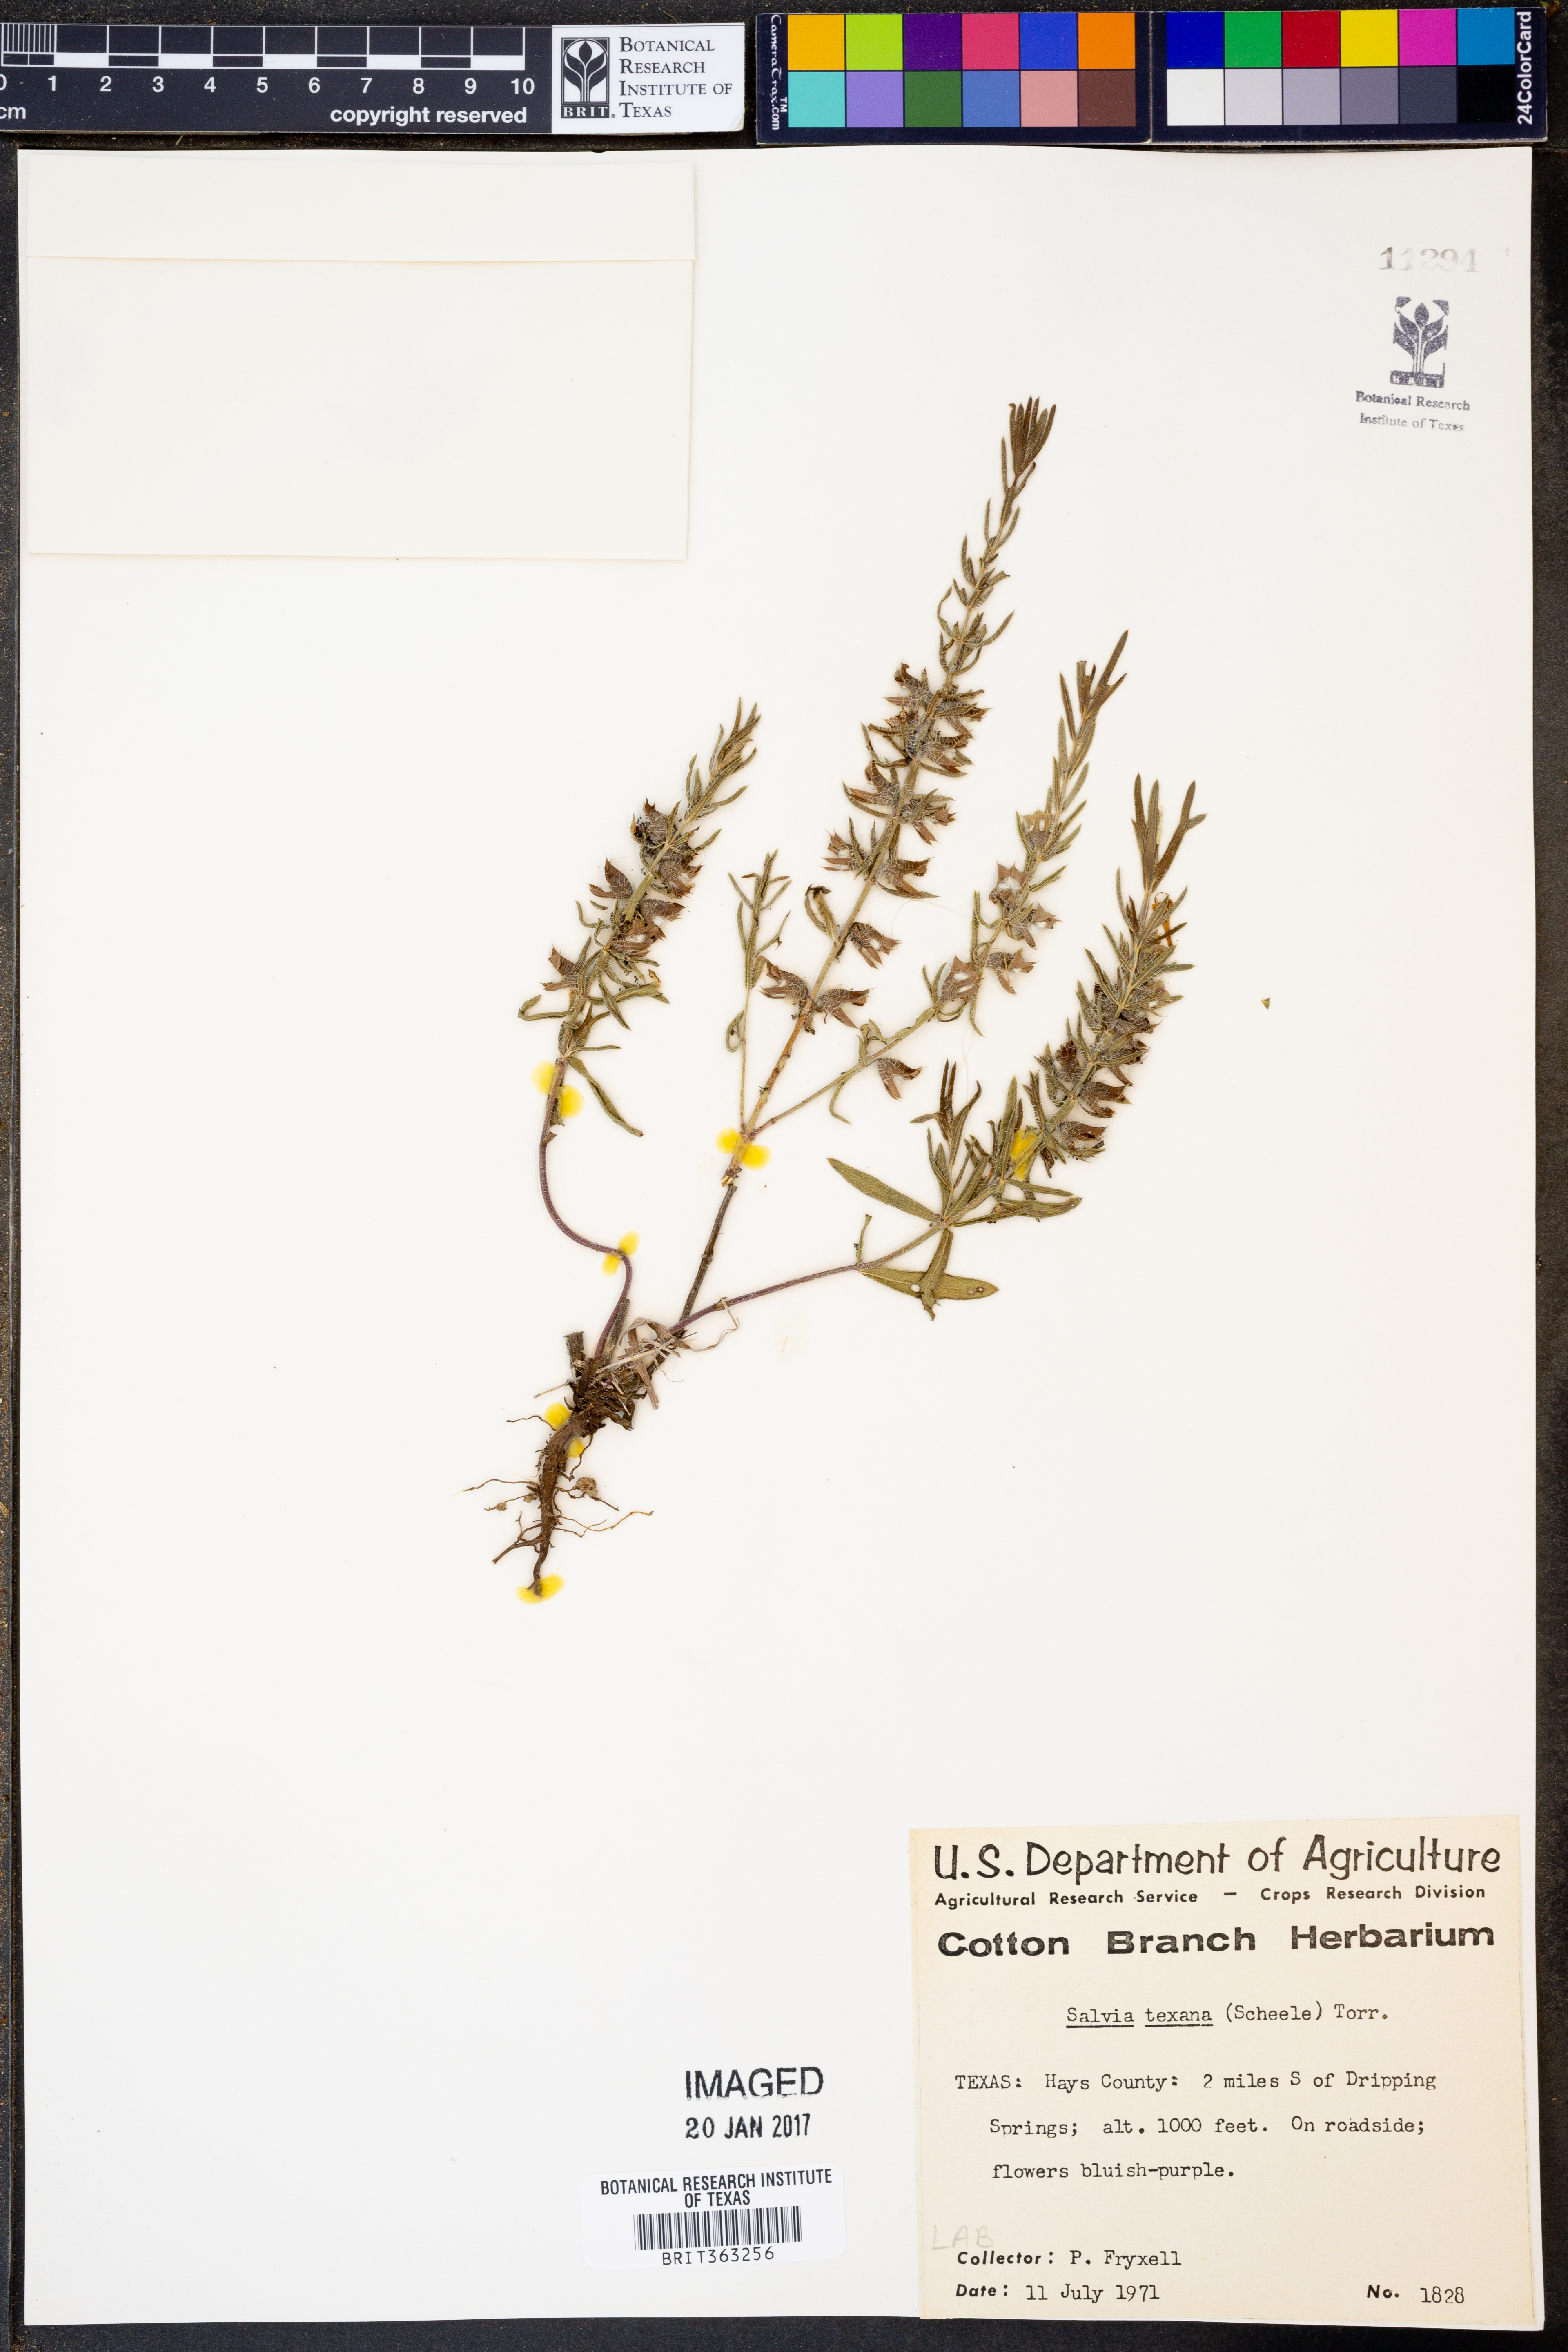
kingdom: Plantae
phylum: Tracheophyta
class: Magnoliopsida
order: Lamiales
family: Lamiaceae
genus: Salvia
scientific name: Salvia texana
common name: Texas sage
